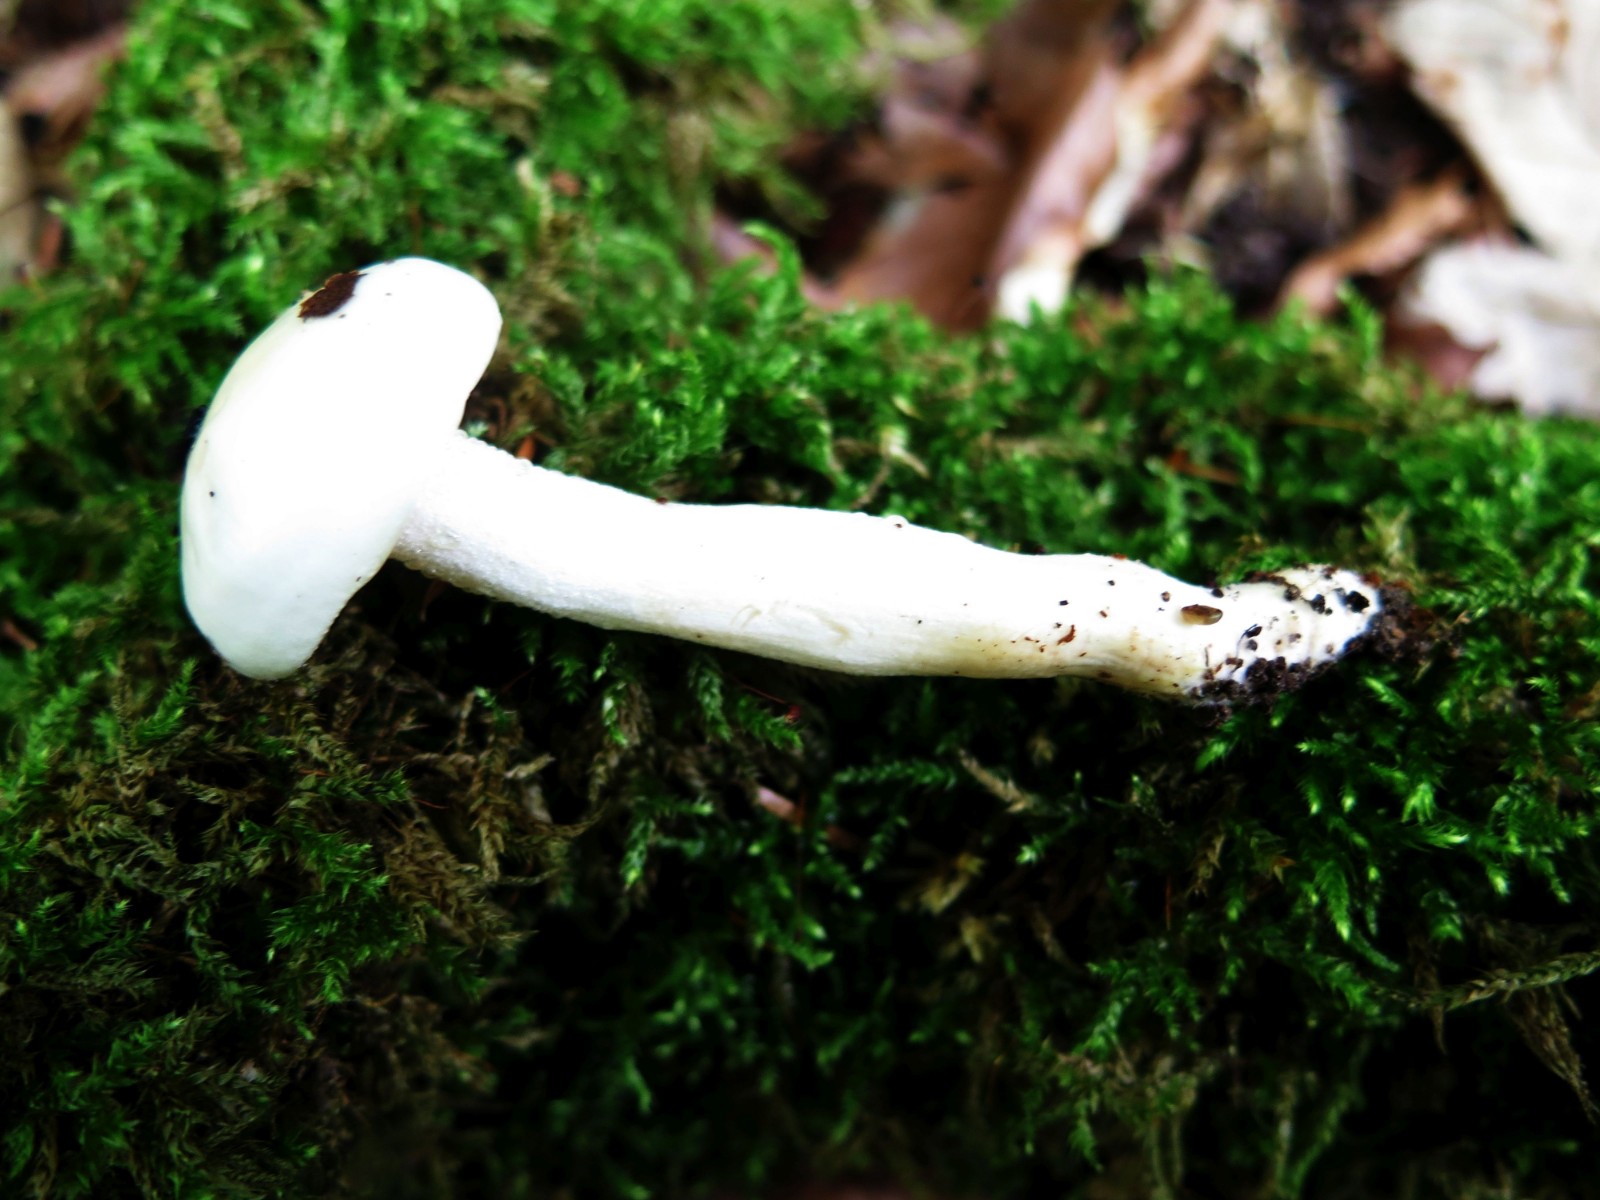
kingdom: Fungi
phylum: Basidiomycota
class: Agaricomycetes
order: Agaricales
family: Hygrophoraceae
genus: Hygrophorus
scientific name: Hygrophorus discoxanthus
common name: ildelugtende sneglehat
